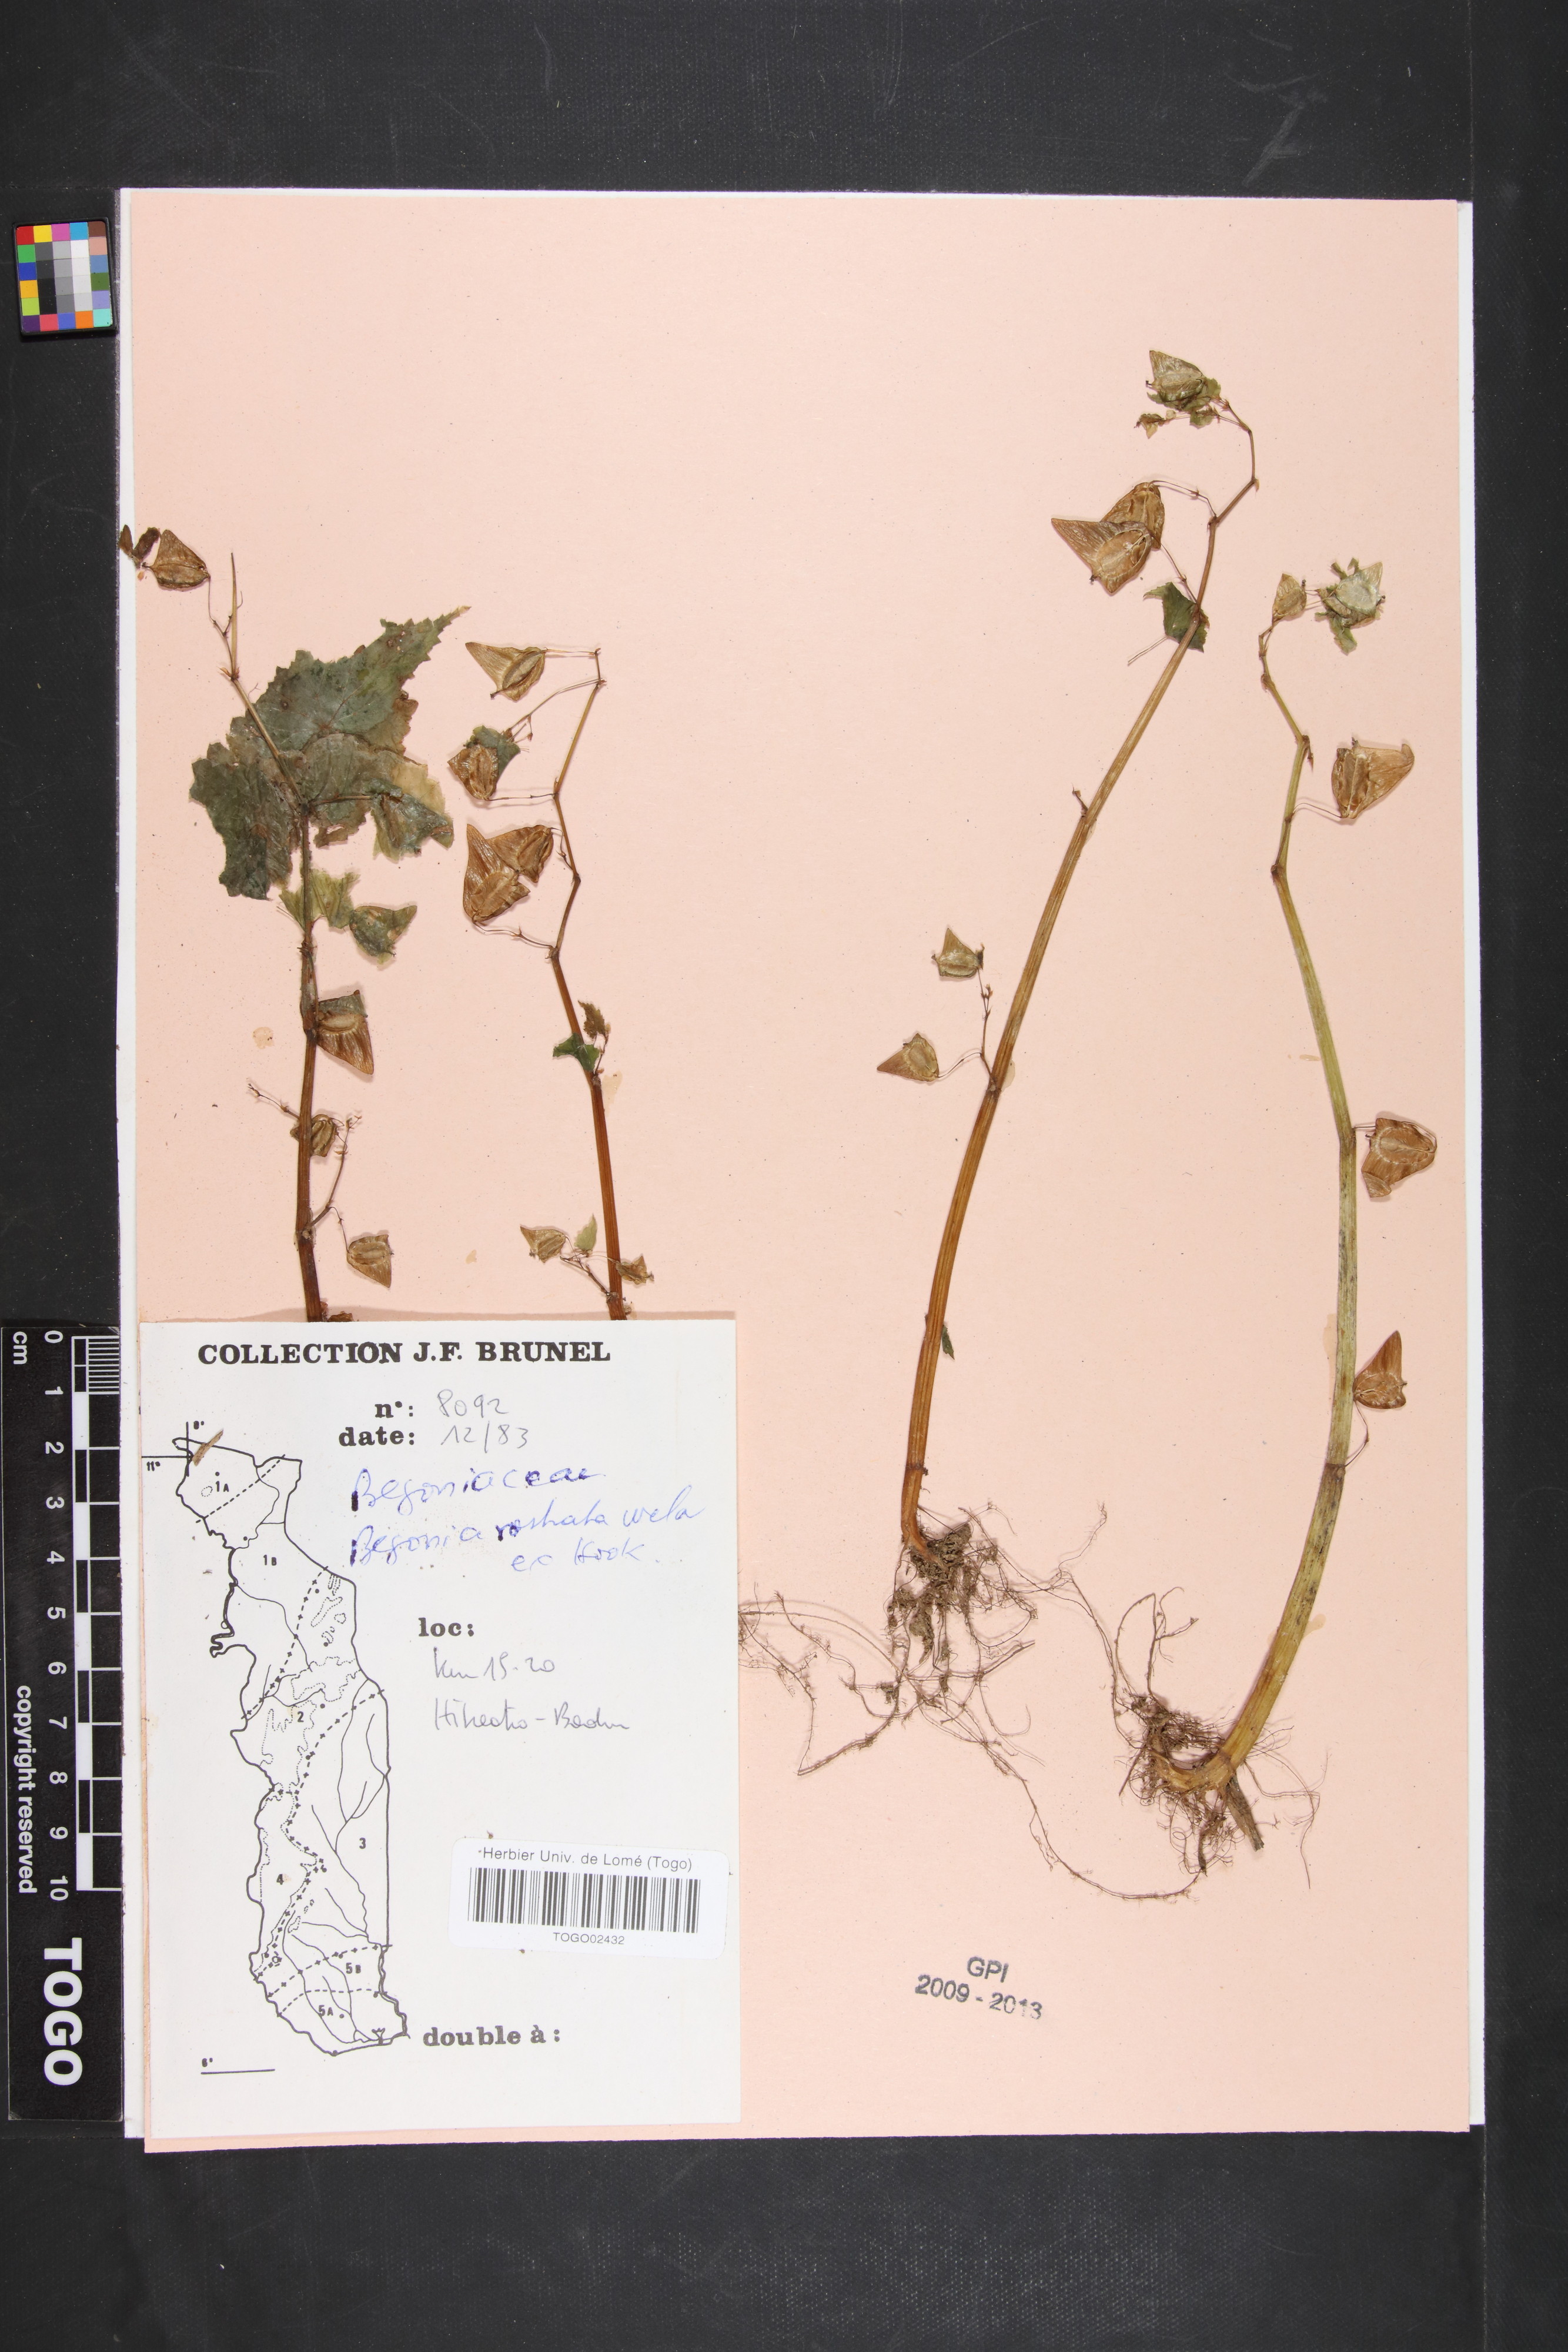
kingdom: Plantae
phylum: Tracheophyta
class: Magnoliopsida
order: Cucurbitales
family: Begoniaceae
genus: Begonia
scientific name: Begonia rostrata
